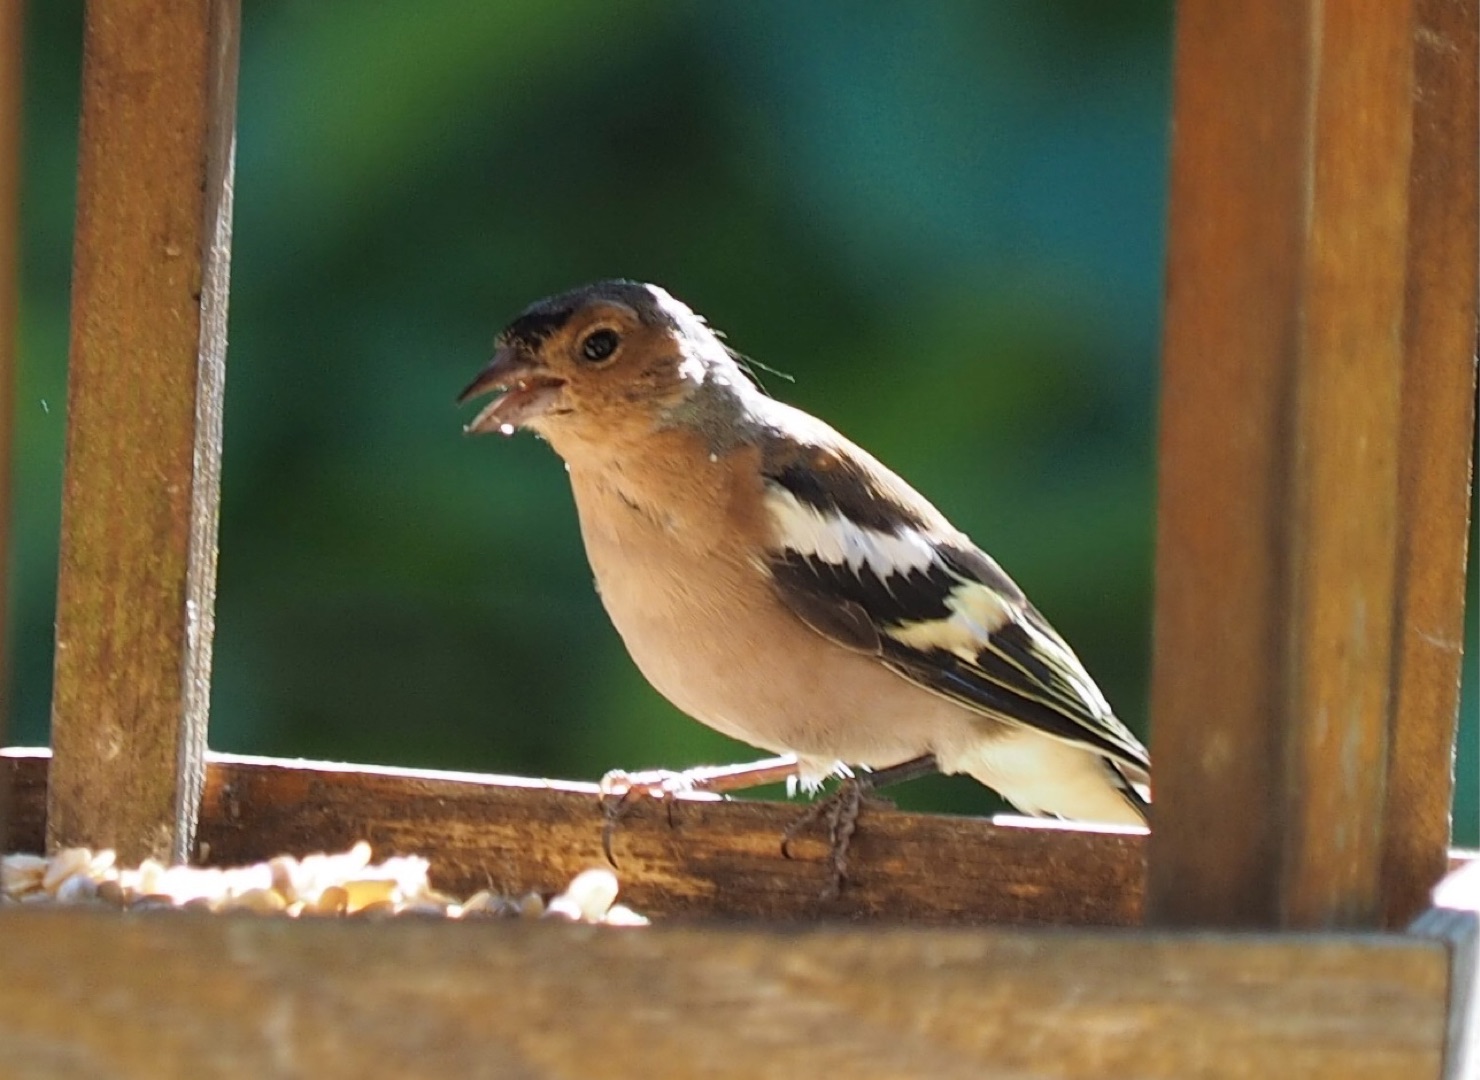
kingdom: Animalia
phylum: Chordata
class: Aves
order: Passeriformes
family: Fringillidae
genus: Fringilla
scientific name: Fringilla coelebs
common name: Bogfinke
